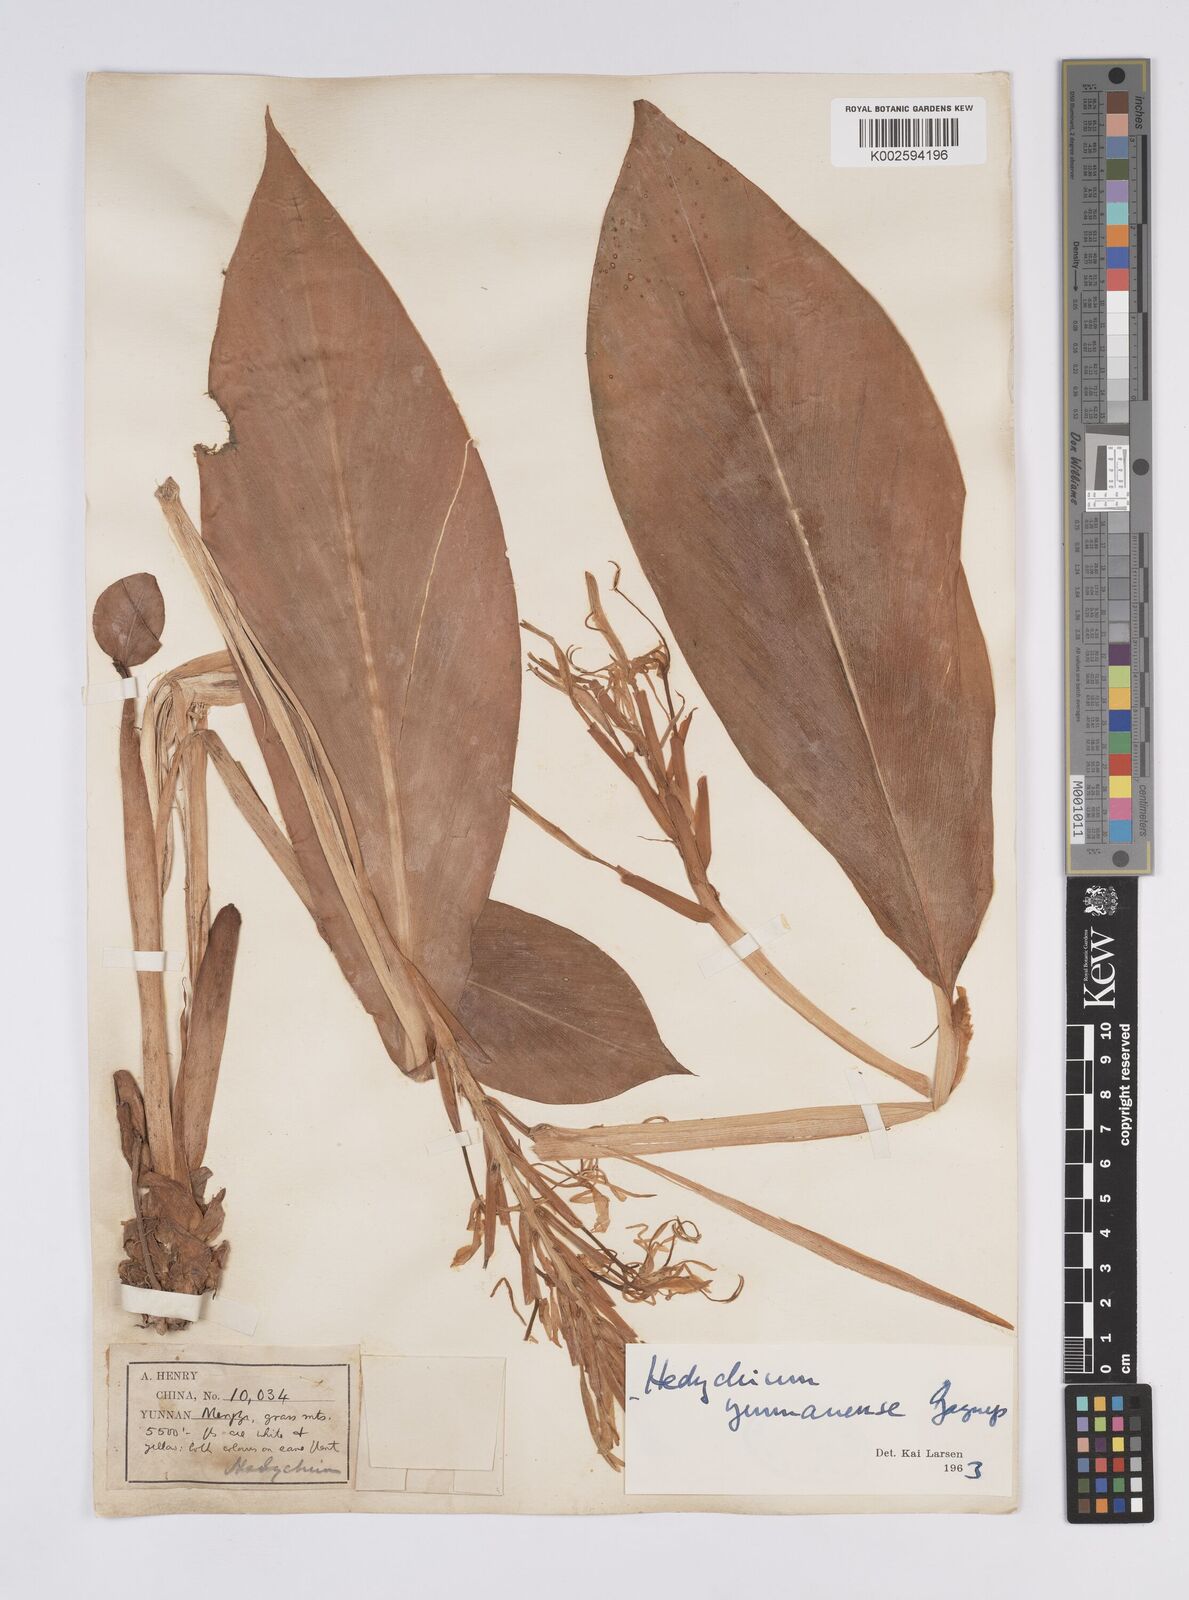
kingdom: Plantae
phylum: Tracheophyta
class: Liliopsida
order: Zingiberales
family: Zingiberaceae
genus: Hedychium
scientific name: Hedychium yunnanense
